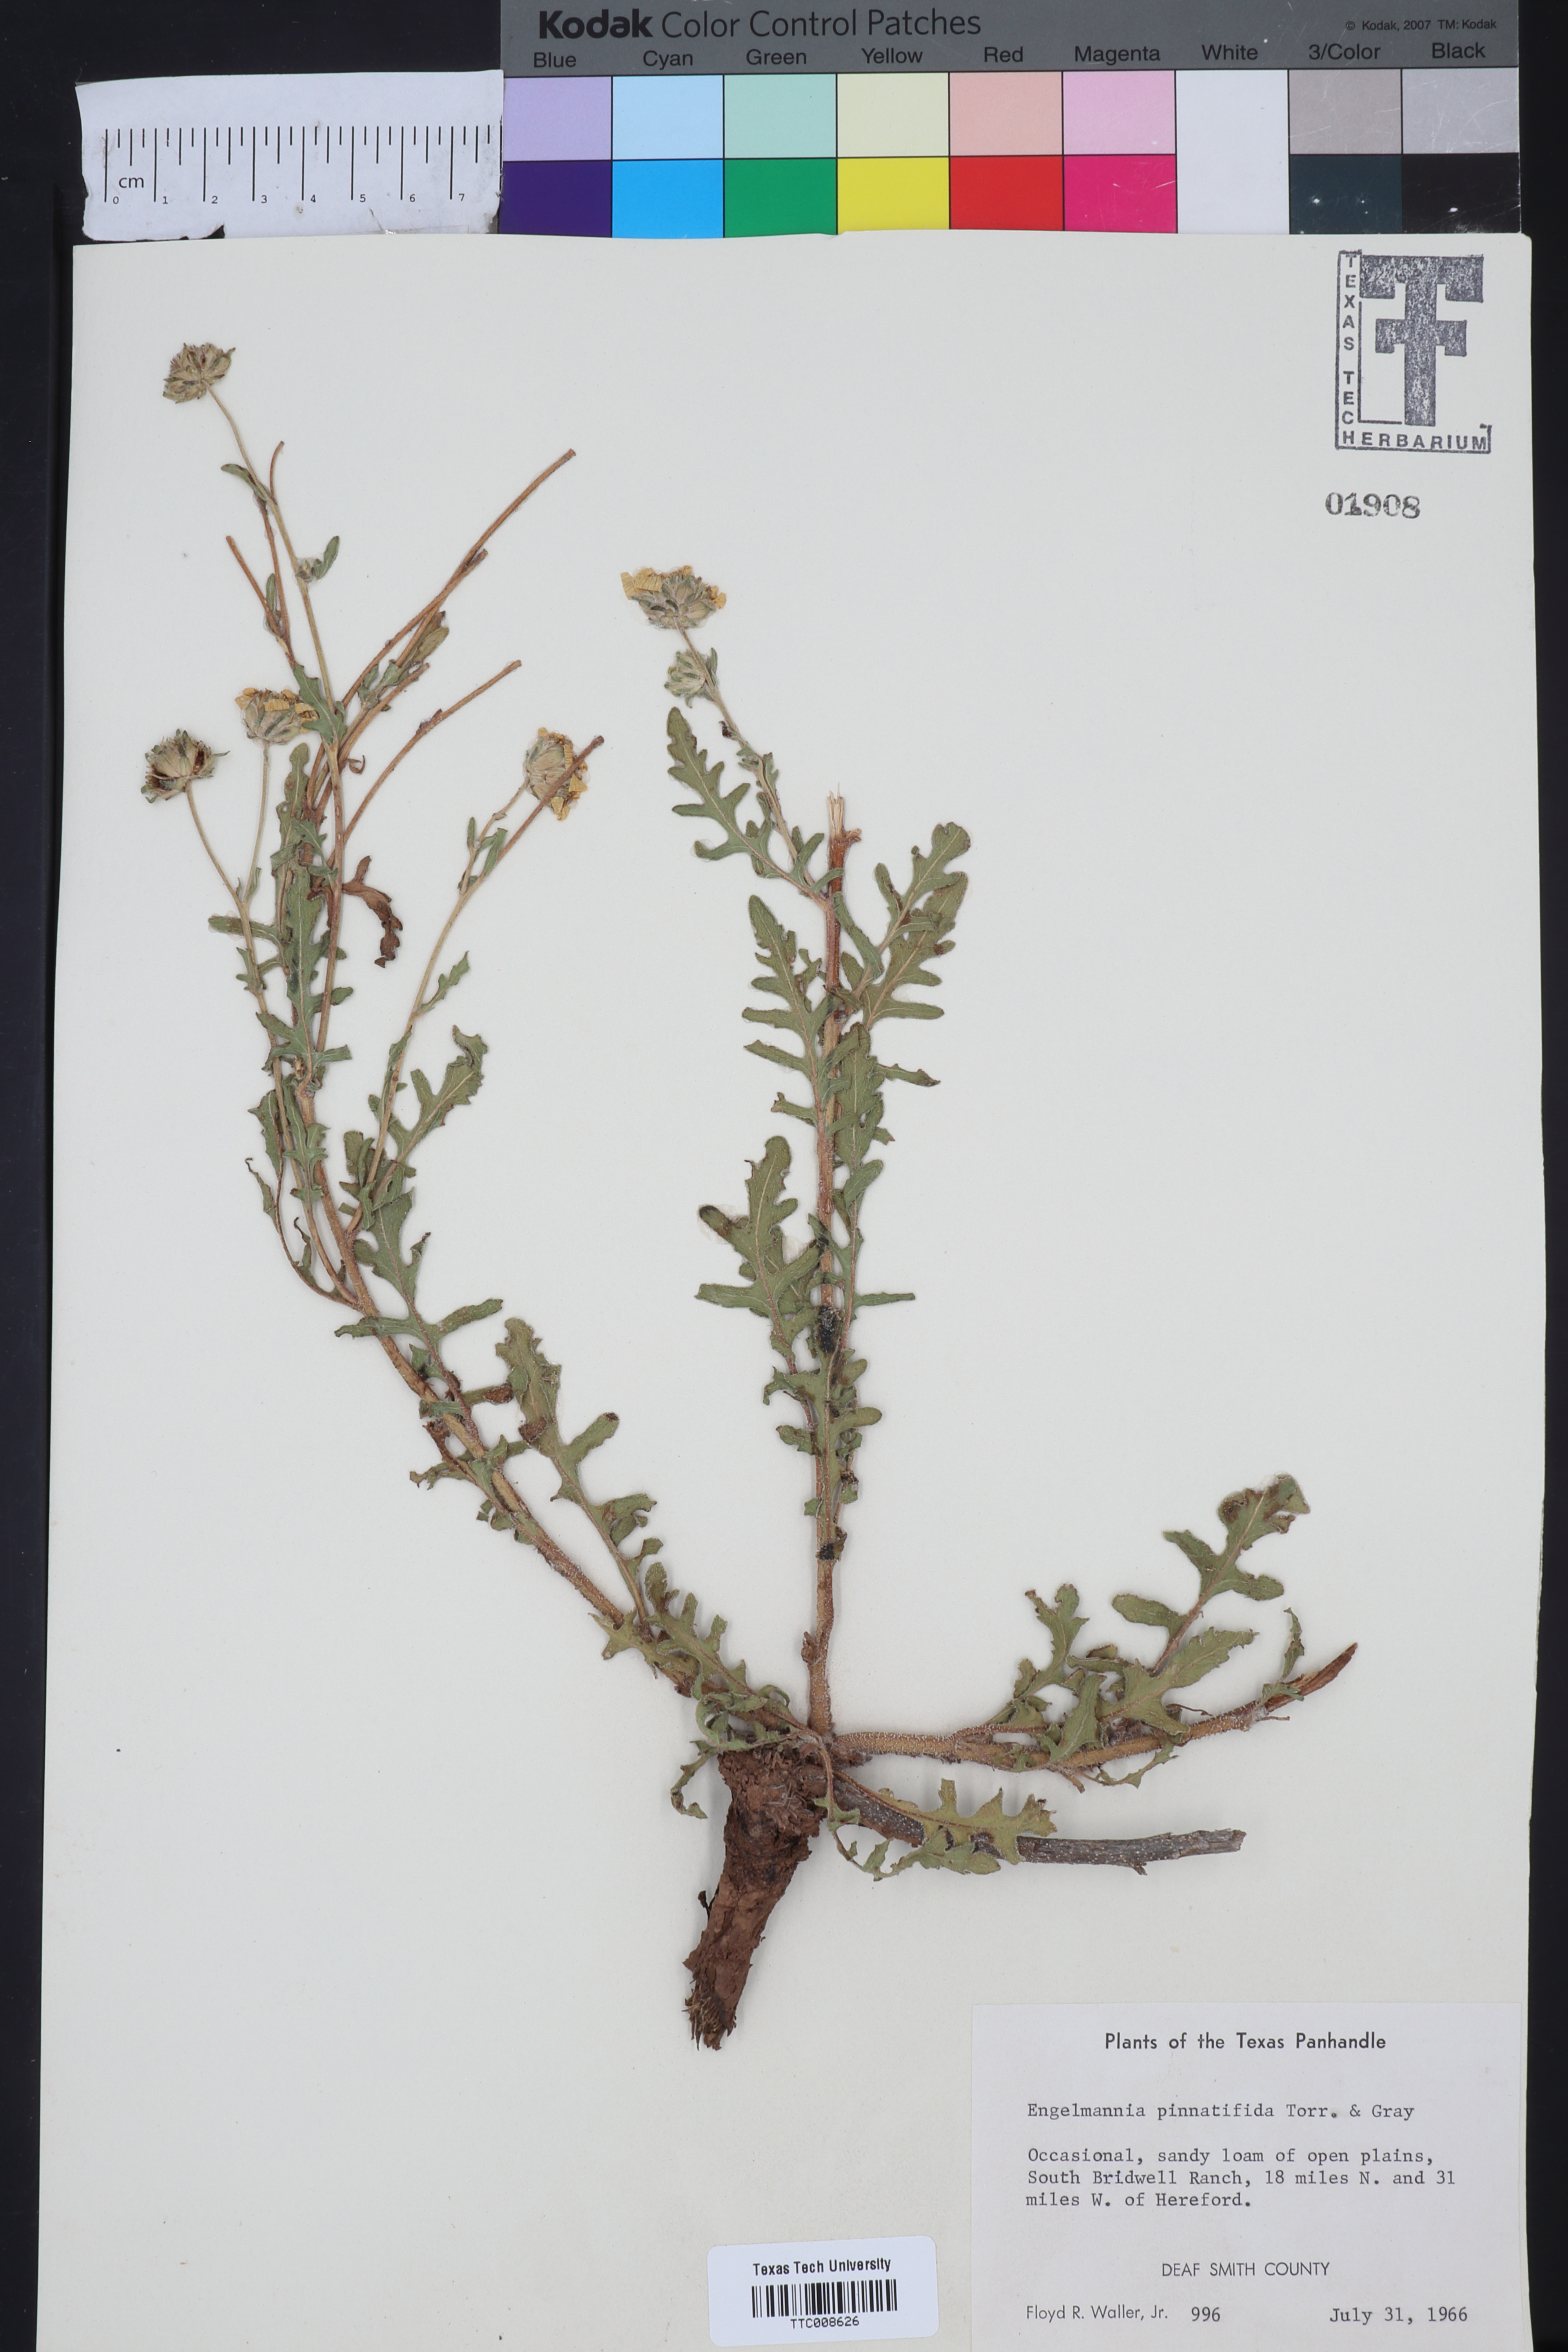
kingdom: Plantae
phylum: Tracheophyta
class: Magnoliopsida
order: Asterales
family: Asteraceae
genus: Engelmannia
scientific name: Engelmannia peristenia
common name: Engelmann's daisy
